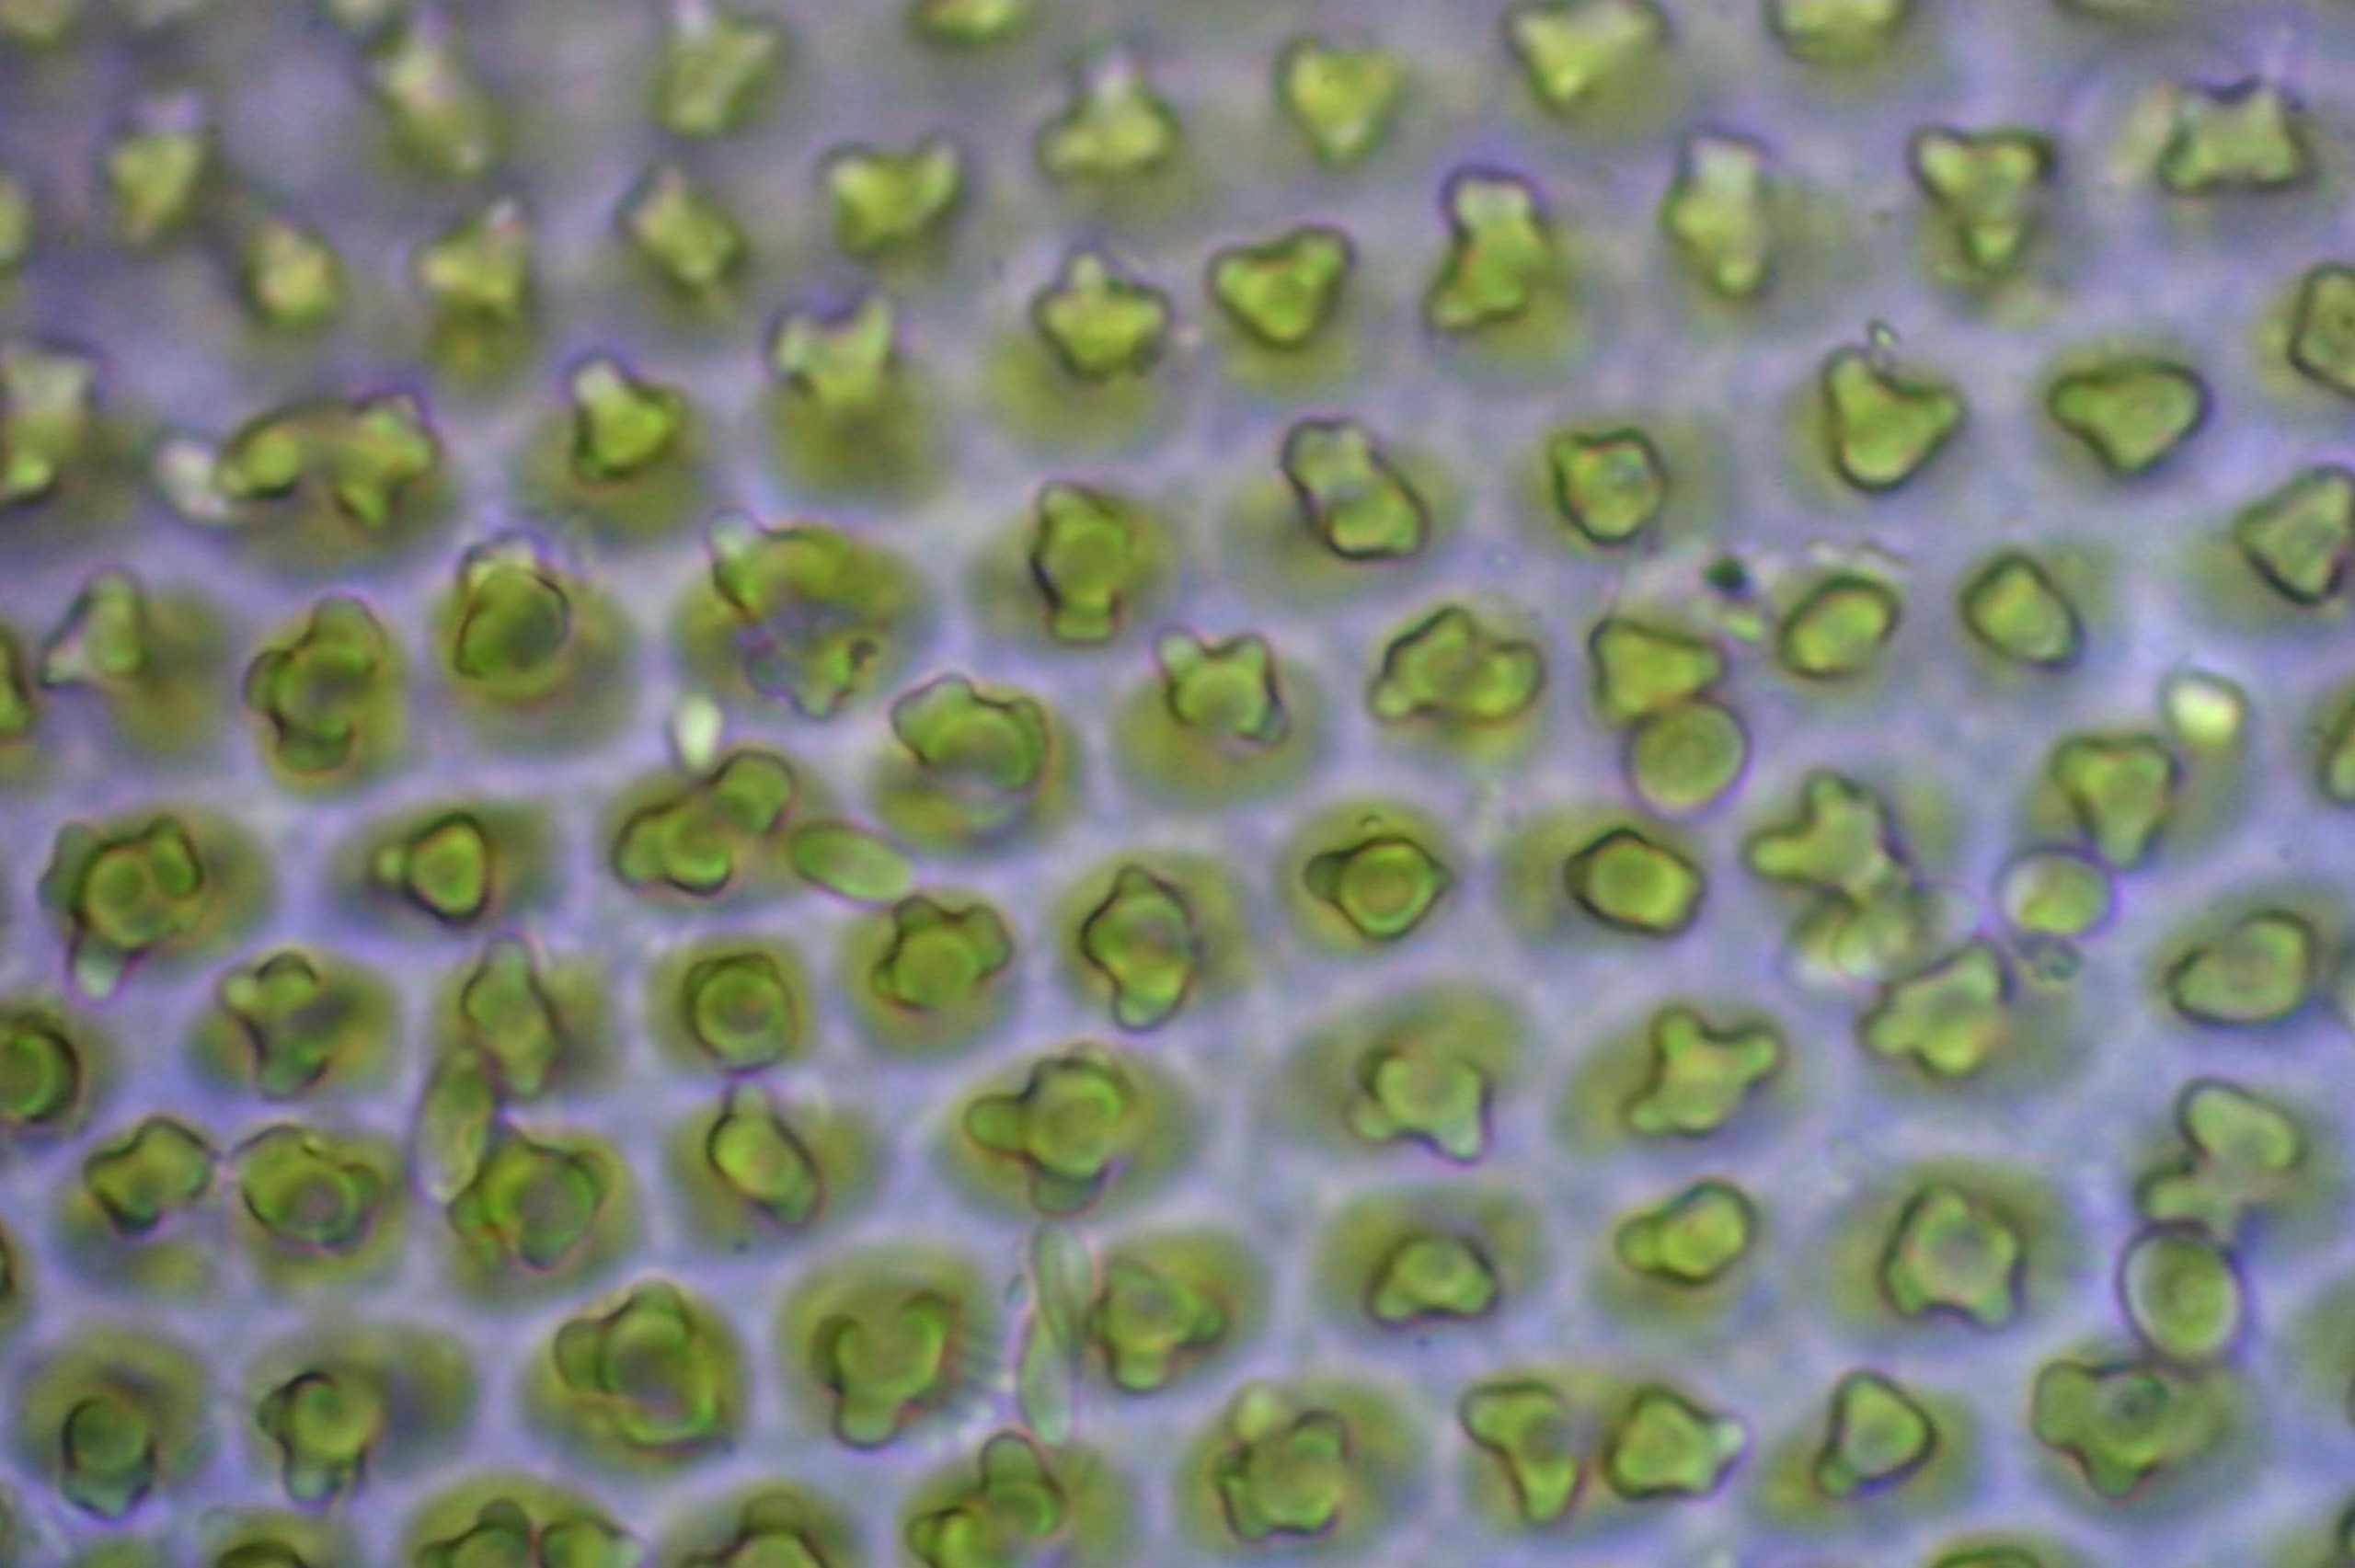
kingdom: Plantae
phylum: Bryophyta
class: Bryopsida
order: Hedwigiales
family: Hedwigiaceae
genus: Hedwigia
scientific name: Hedwigia stellata
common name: Stjernebladet hedwigia
